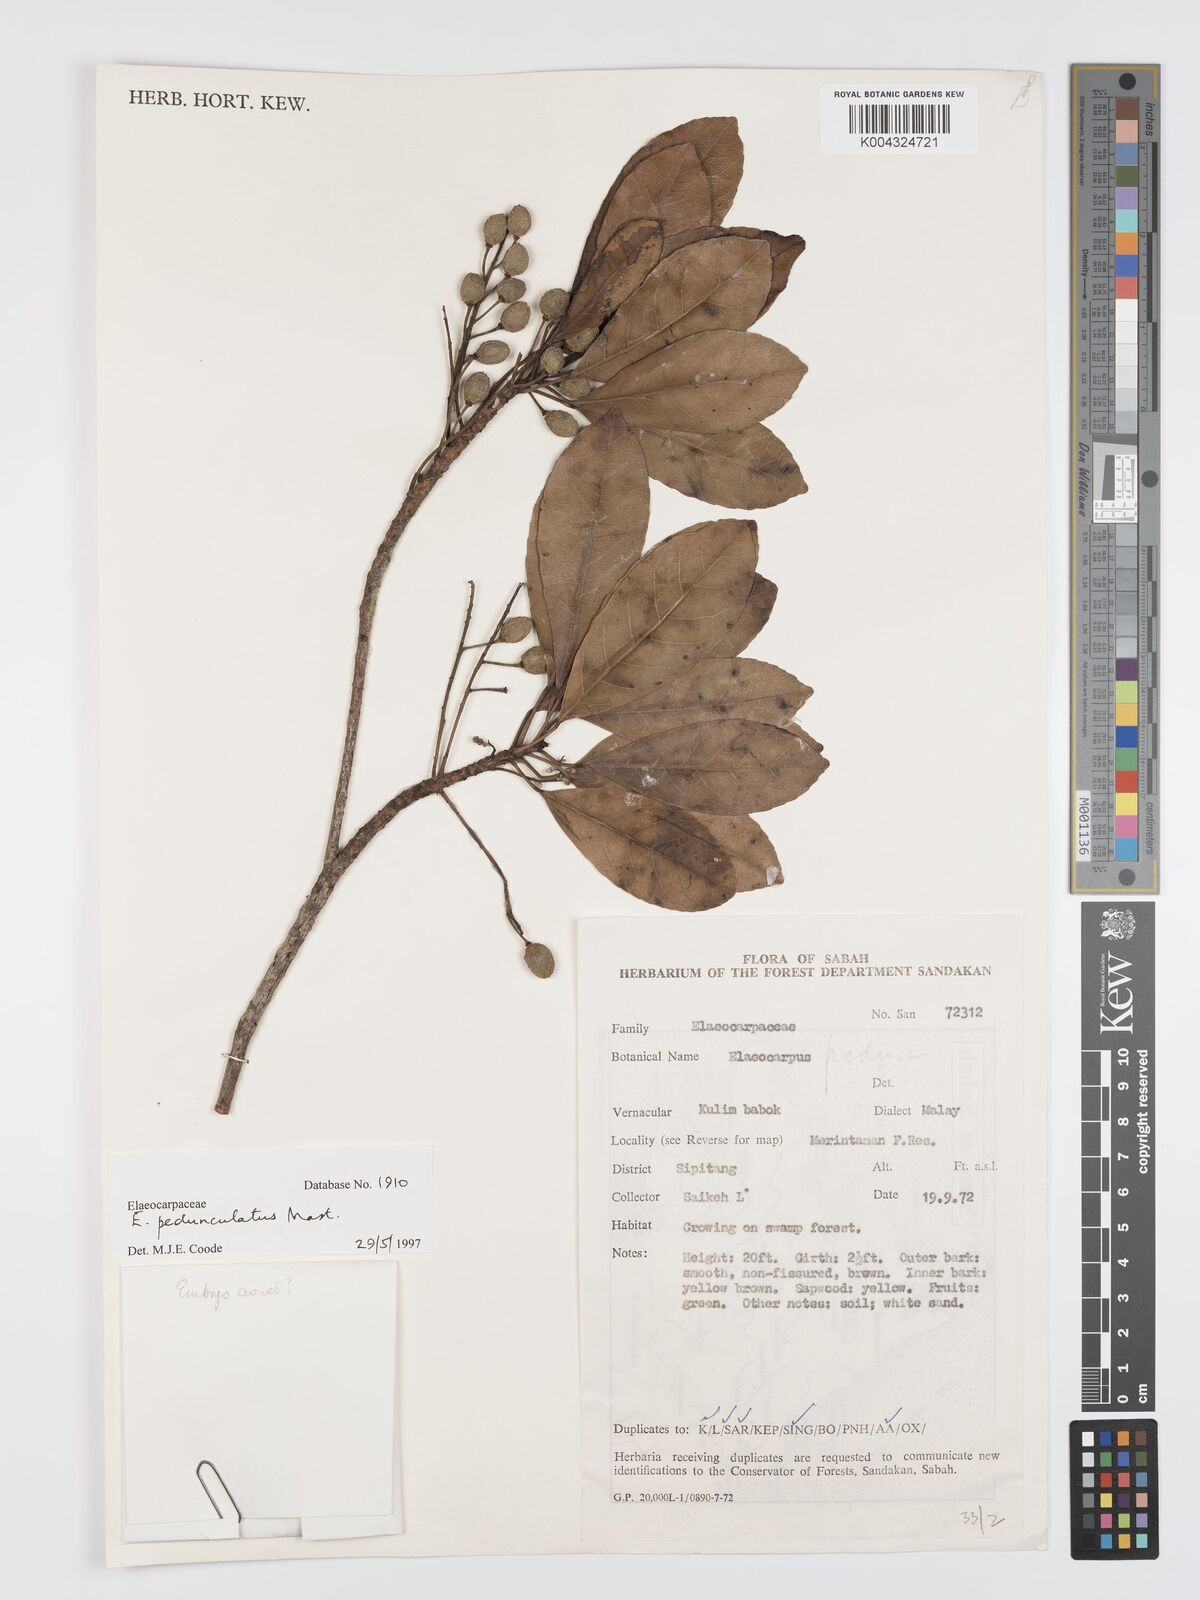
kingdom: Plantae
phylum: Tracheophyta
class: Magnoliopsida
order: Oxalidales
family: Elaeocarpaceae
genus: Elaeocarpus
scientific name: Elaeocarpus pedunculatus
